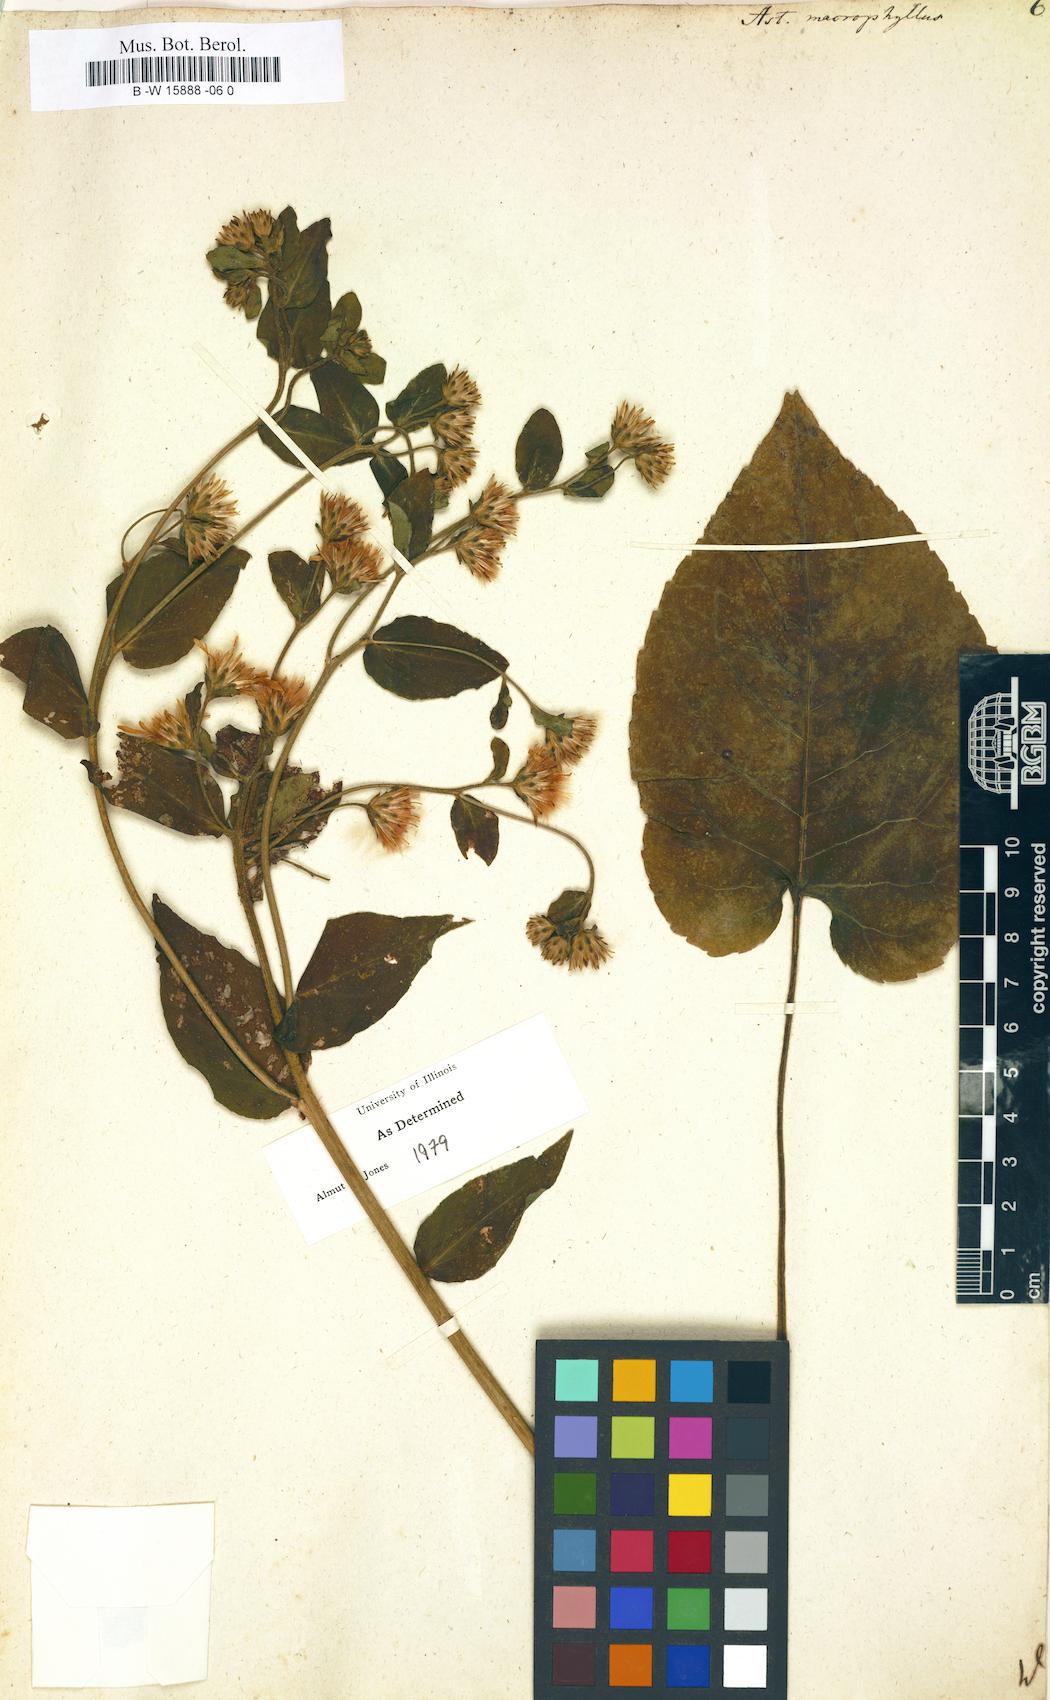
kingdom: Plantae
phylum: Tracheophyta
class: Magnoliopsida
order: Asterales
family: Asteraceae
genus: Eurybia
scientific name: Eurybia macrophylla
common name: Big-leaved aster
